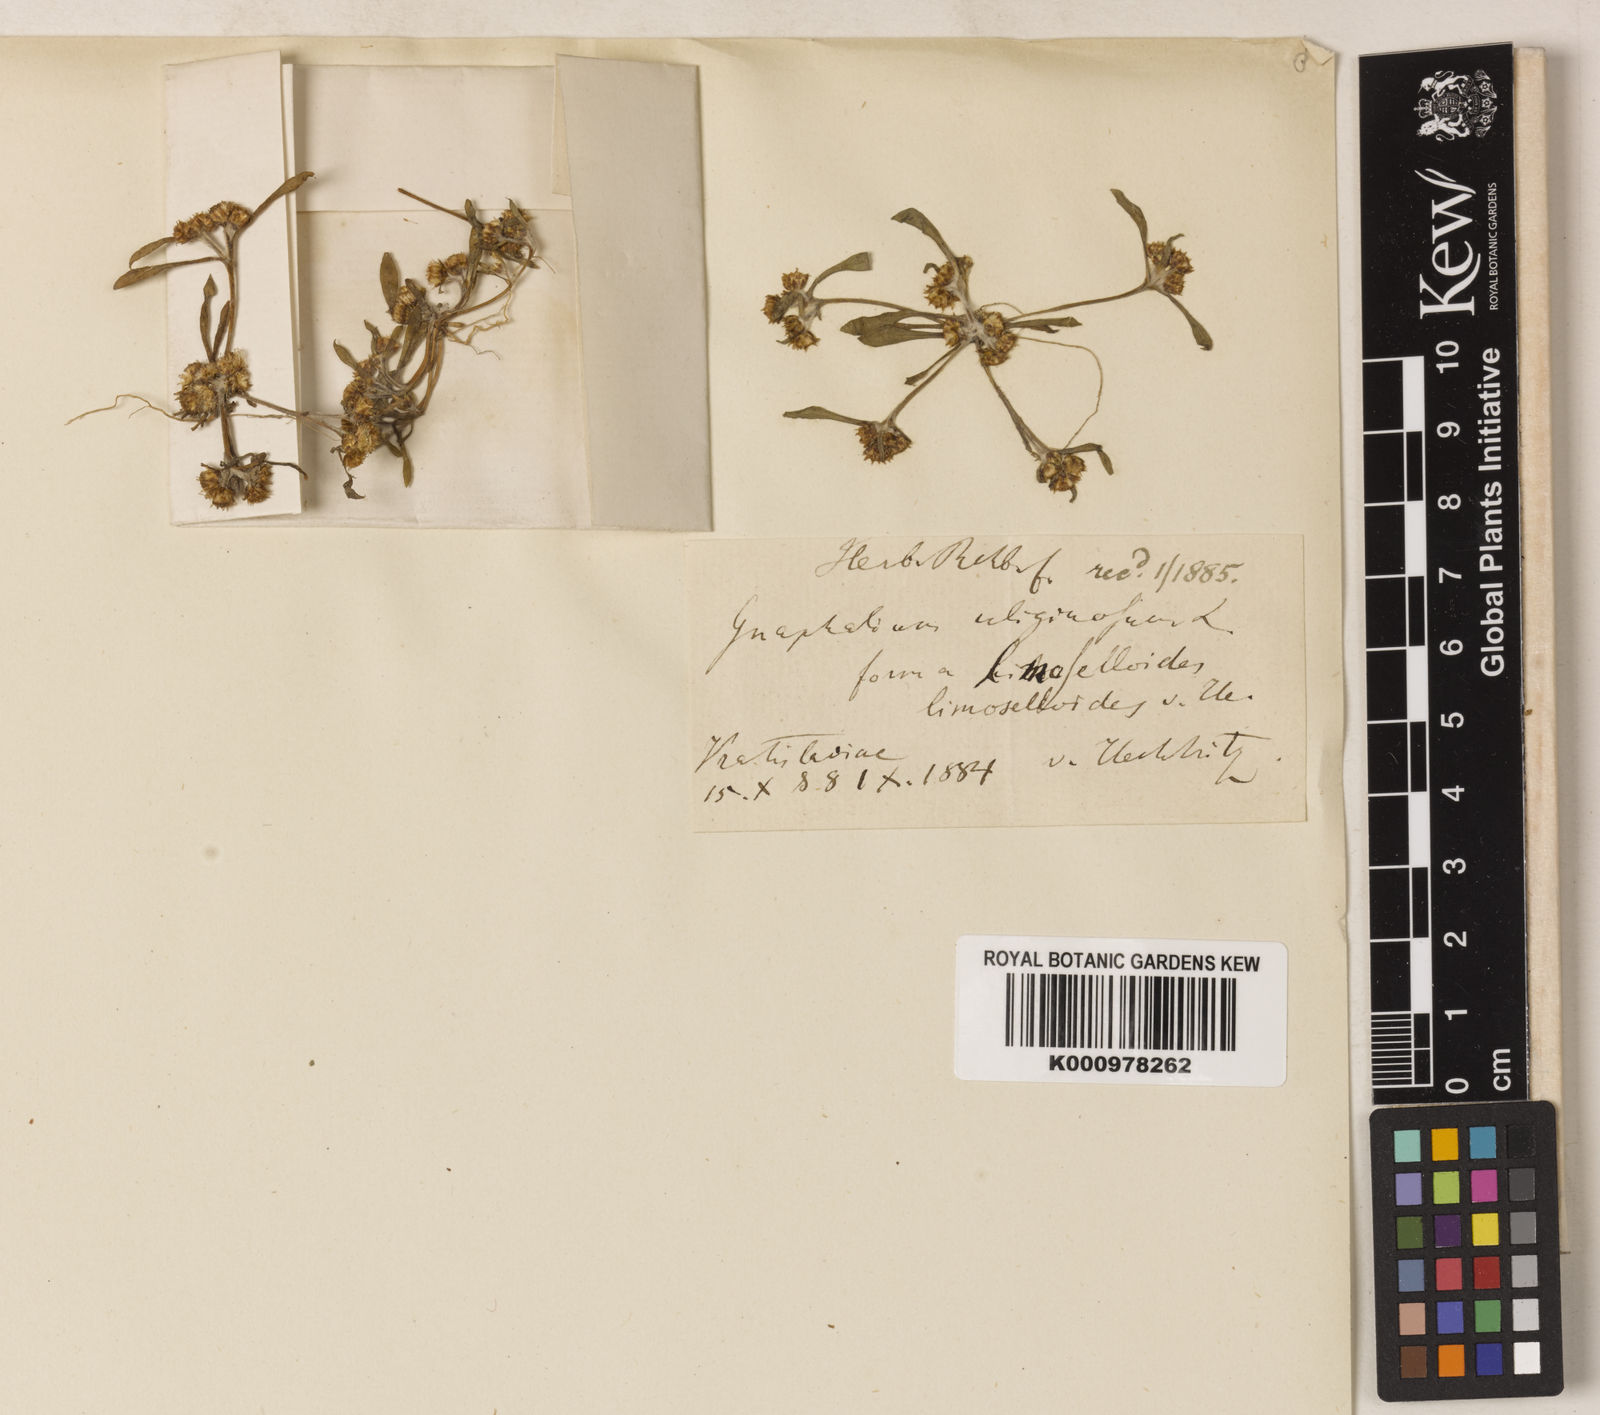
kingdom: Plantae
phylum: Tracheophyta
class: Magnoliopsida
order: Asterales
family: Asteraceae
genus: Gnaphalium
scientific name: Gnaphalium uliginosum
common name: Marsh cudweed
